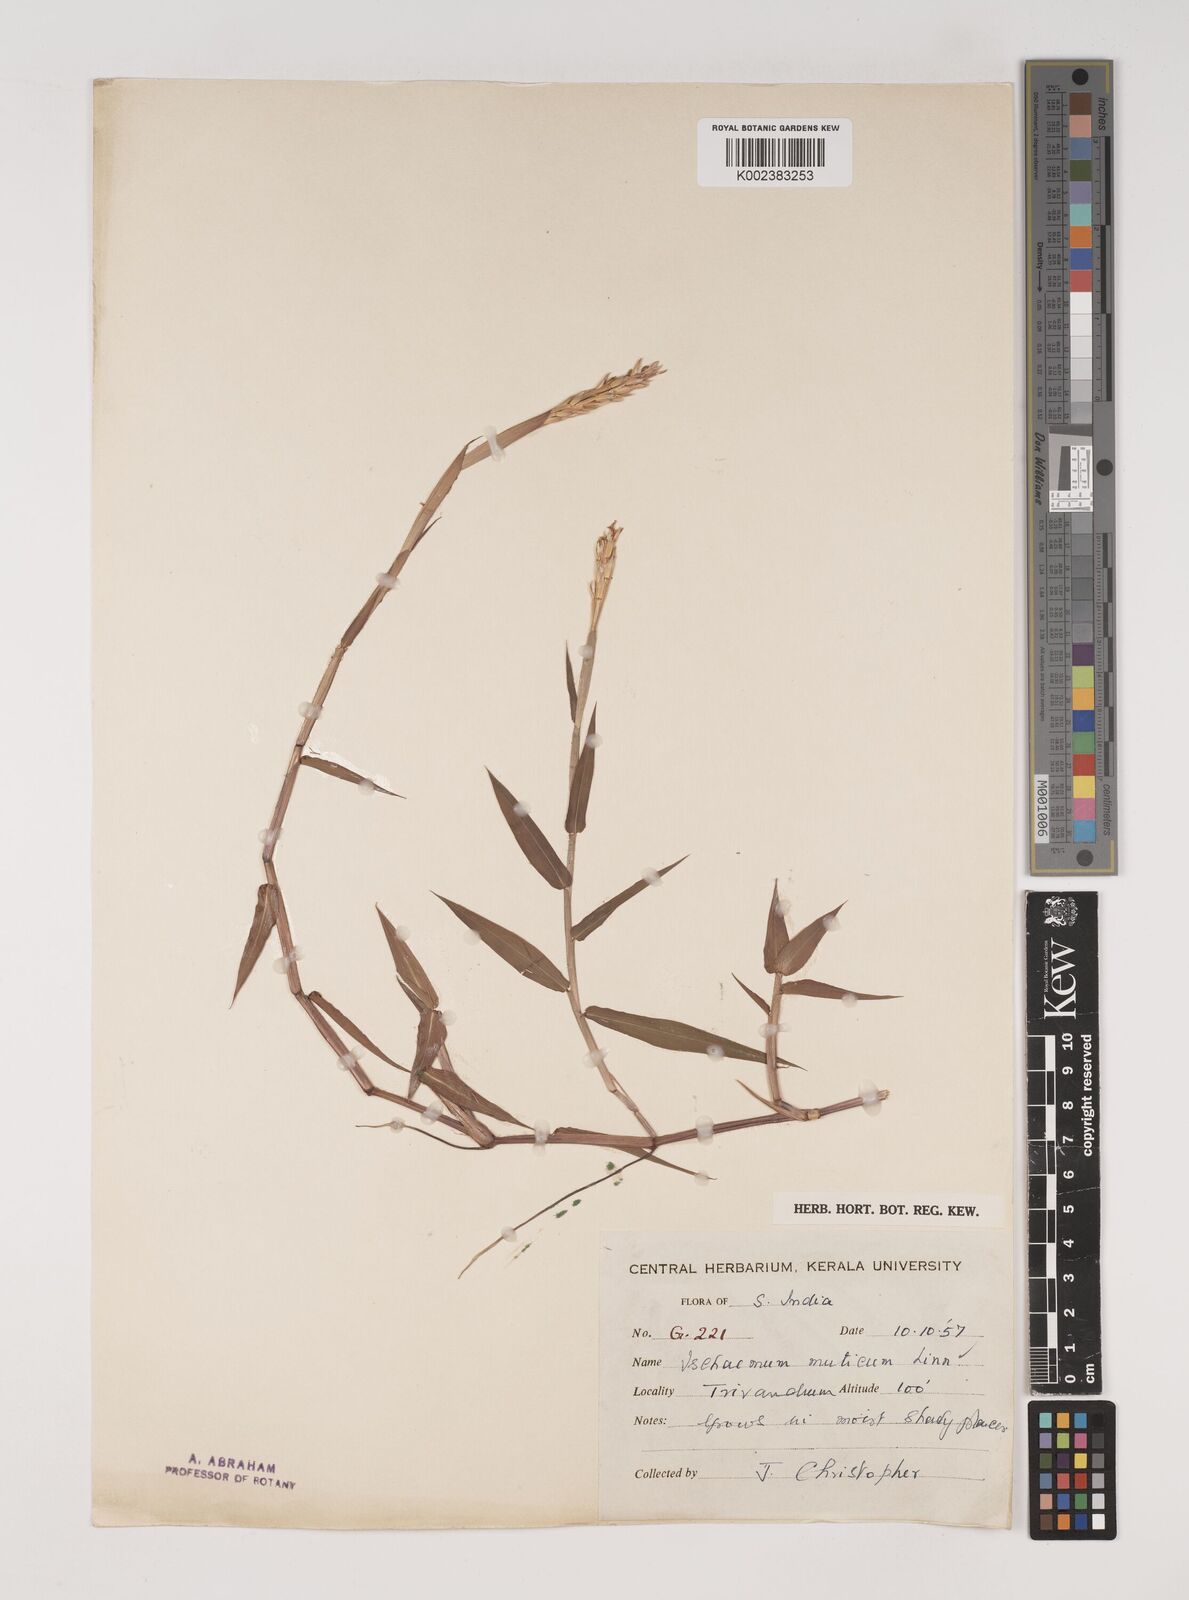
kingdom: Plantae
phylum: Tracheophyta
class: Liliopsida
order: Poales
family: Poaceae
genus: Ischaemum
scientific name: Ischaemum muticum
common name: Drought grass
